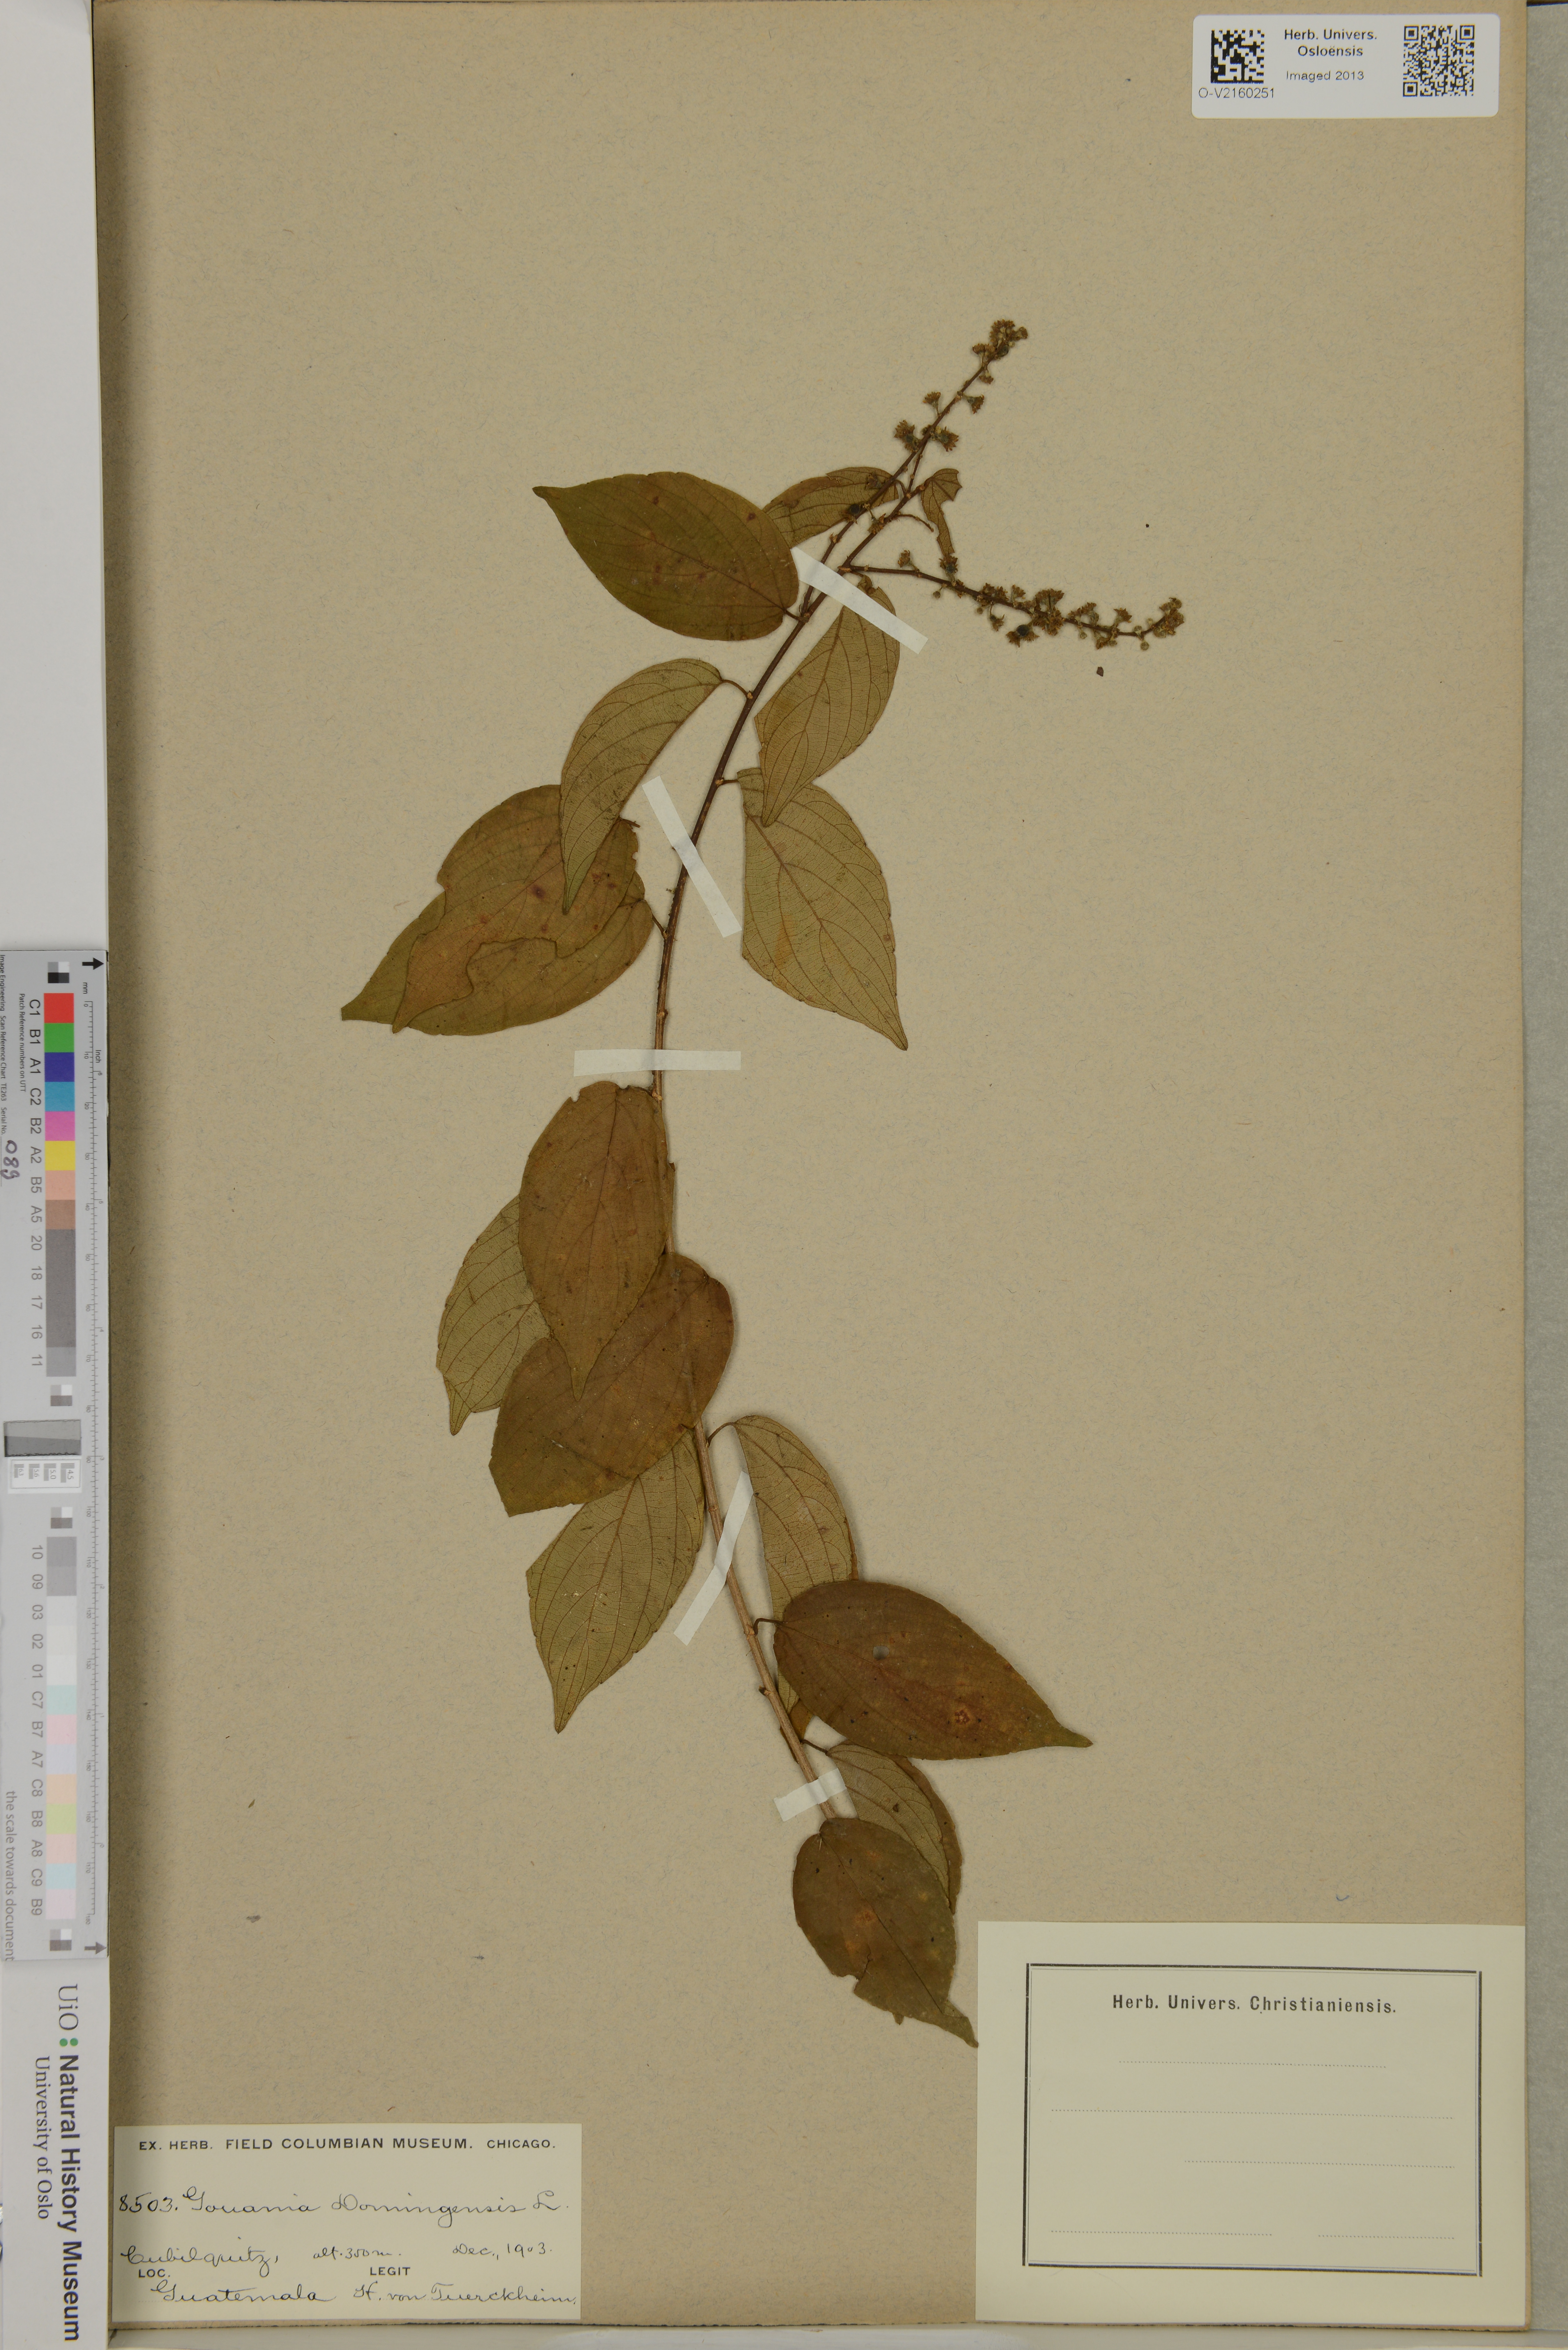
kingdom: Plantae
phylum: Tracheophyta
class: Magnoliopsida
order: Rosales
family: Rhamnaceae
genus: Gouania
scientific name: Gouania
